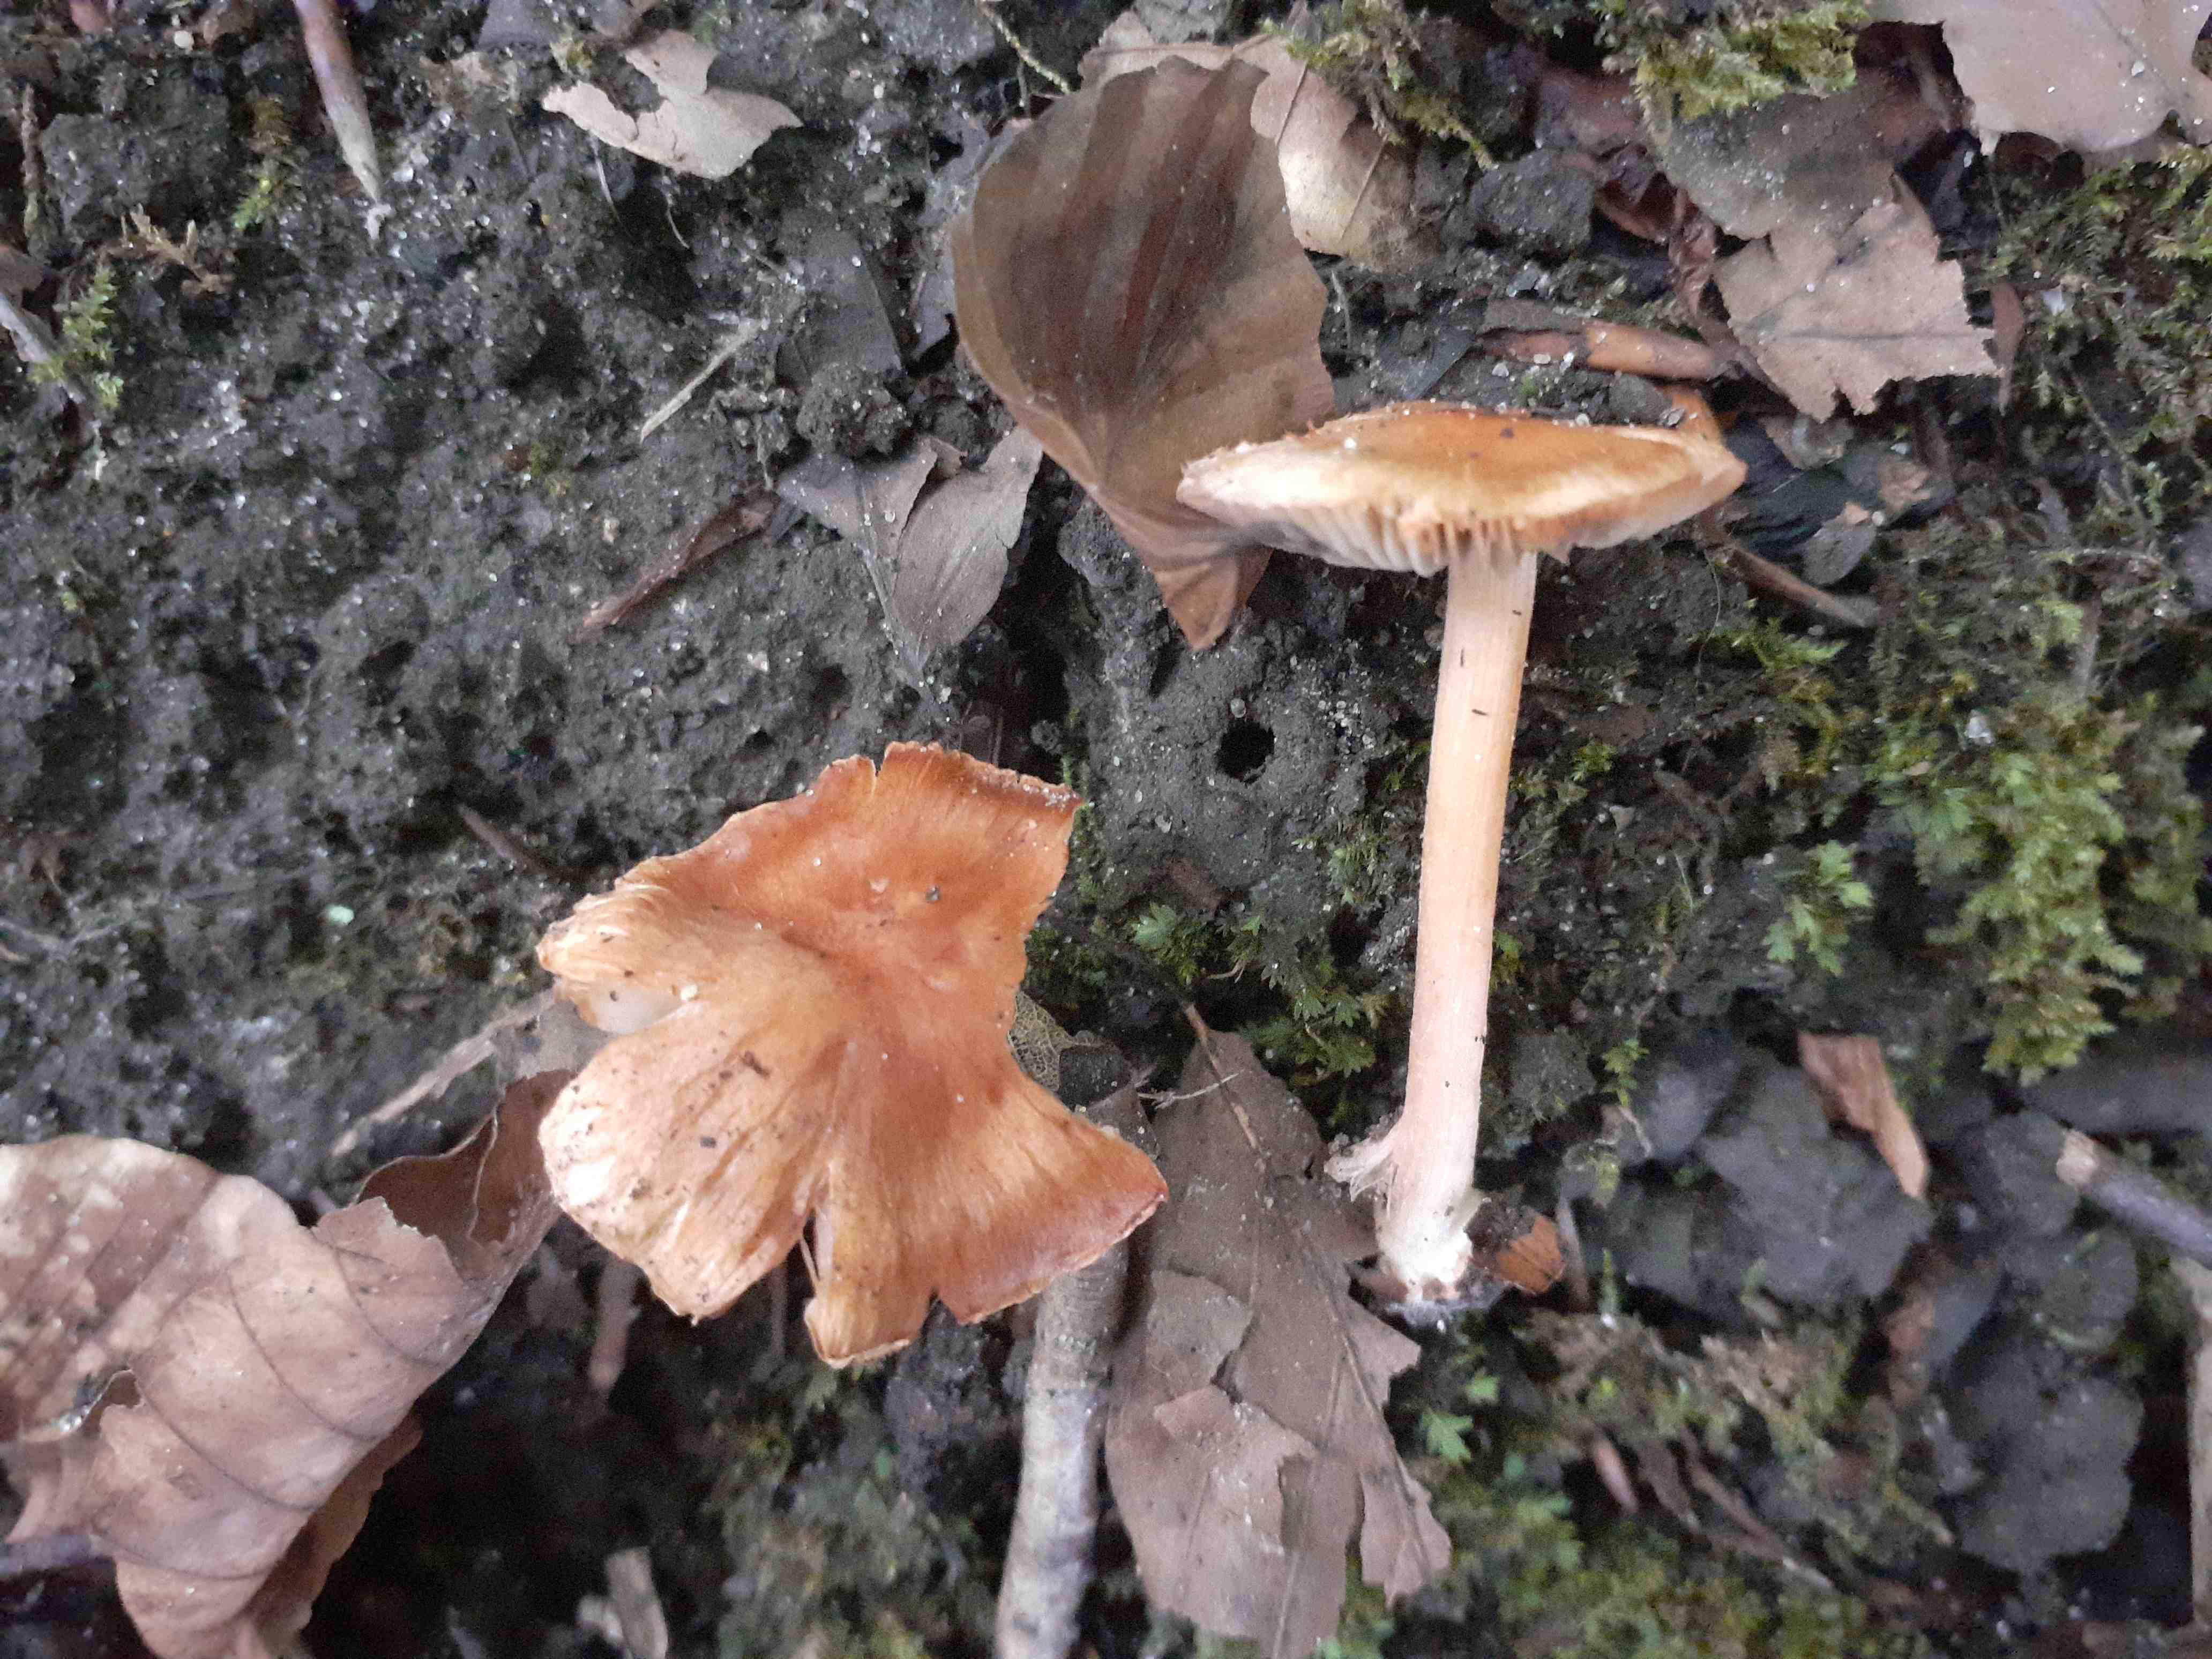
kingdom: Fungi
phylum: Basidiomycota
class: Agaricomycetes
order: Agaricales
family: Inocybaceae
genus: Inocybe
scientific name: Inocybe godeyi
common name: orangerødmende trævlhat
